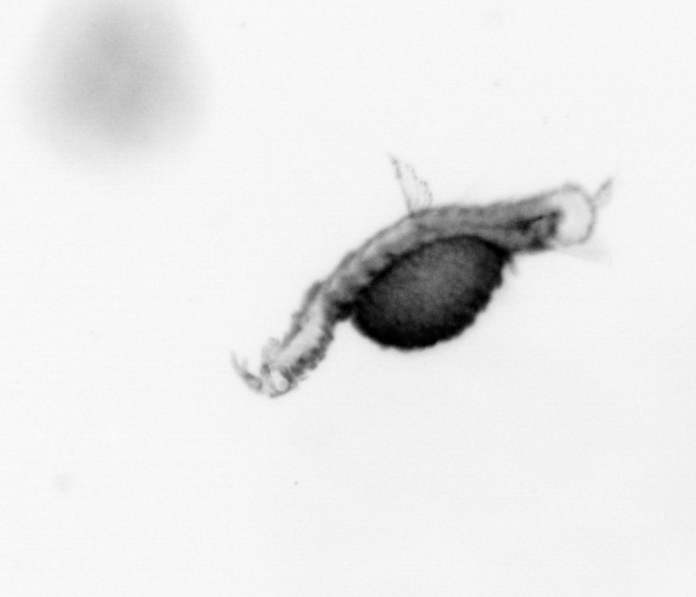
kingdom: Animalia
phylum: Annelida
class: Polychaeta
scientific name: Polychaeta
